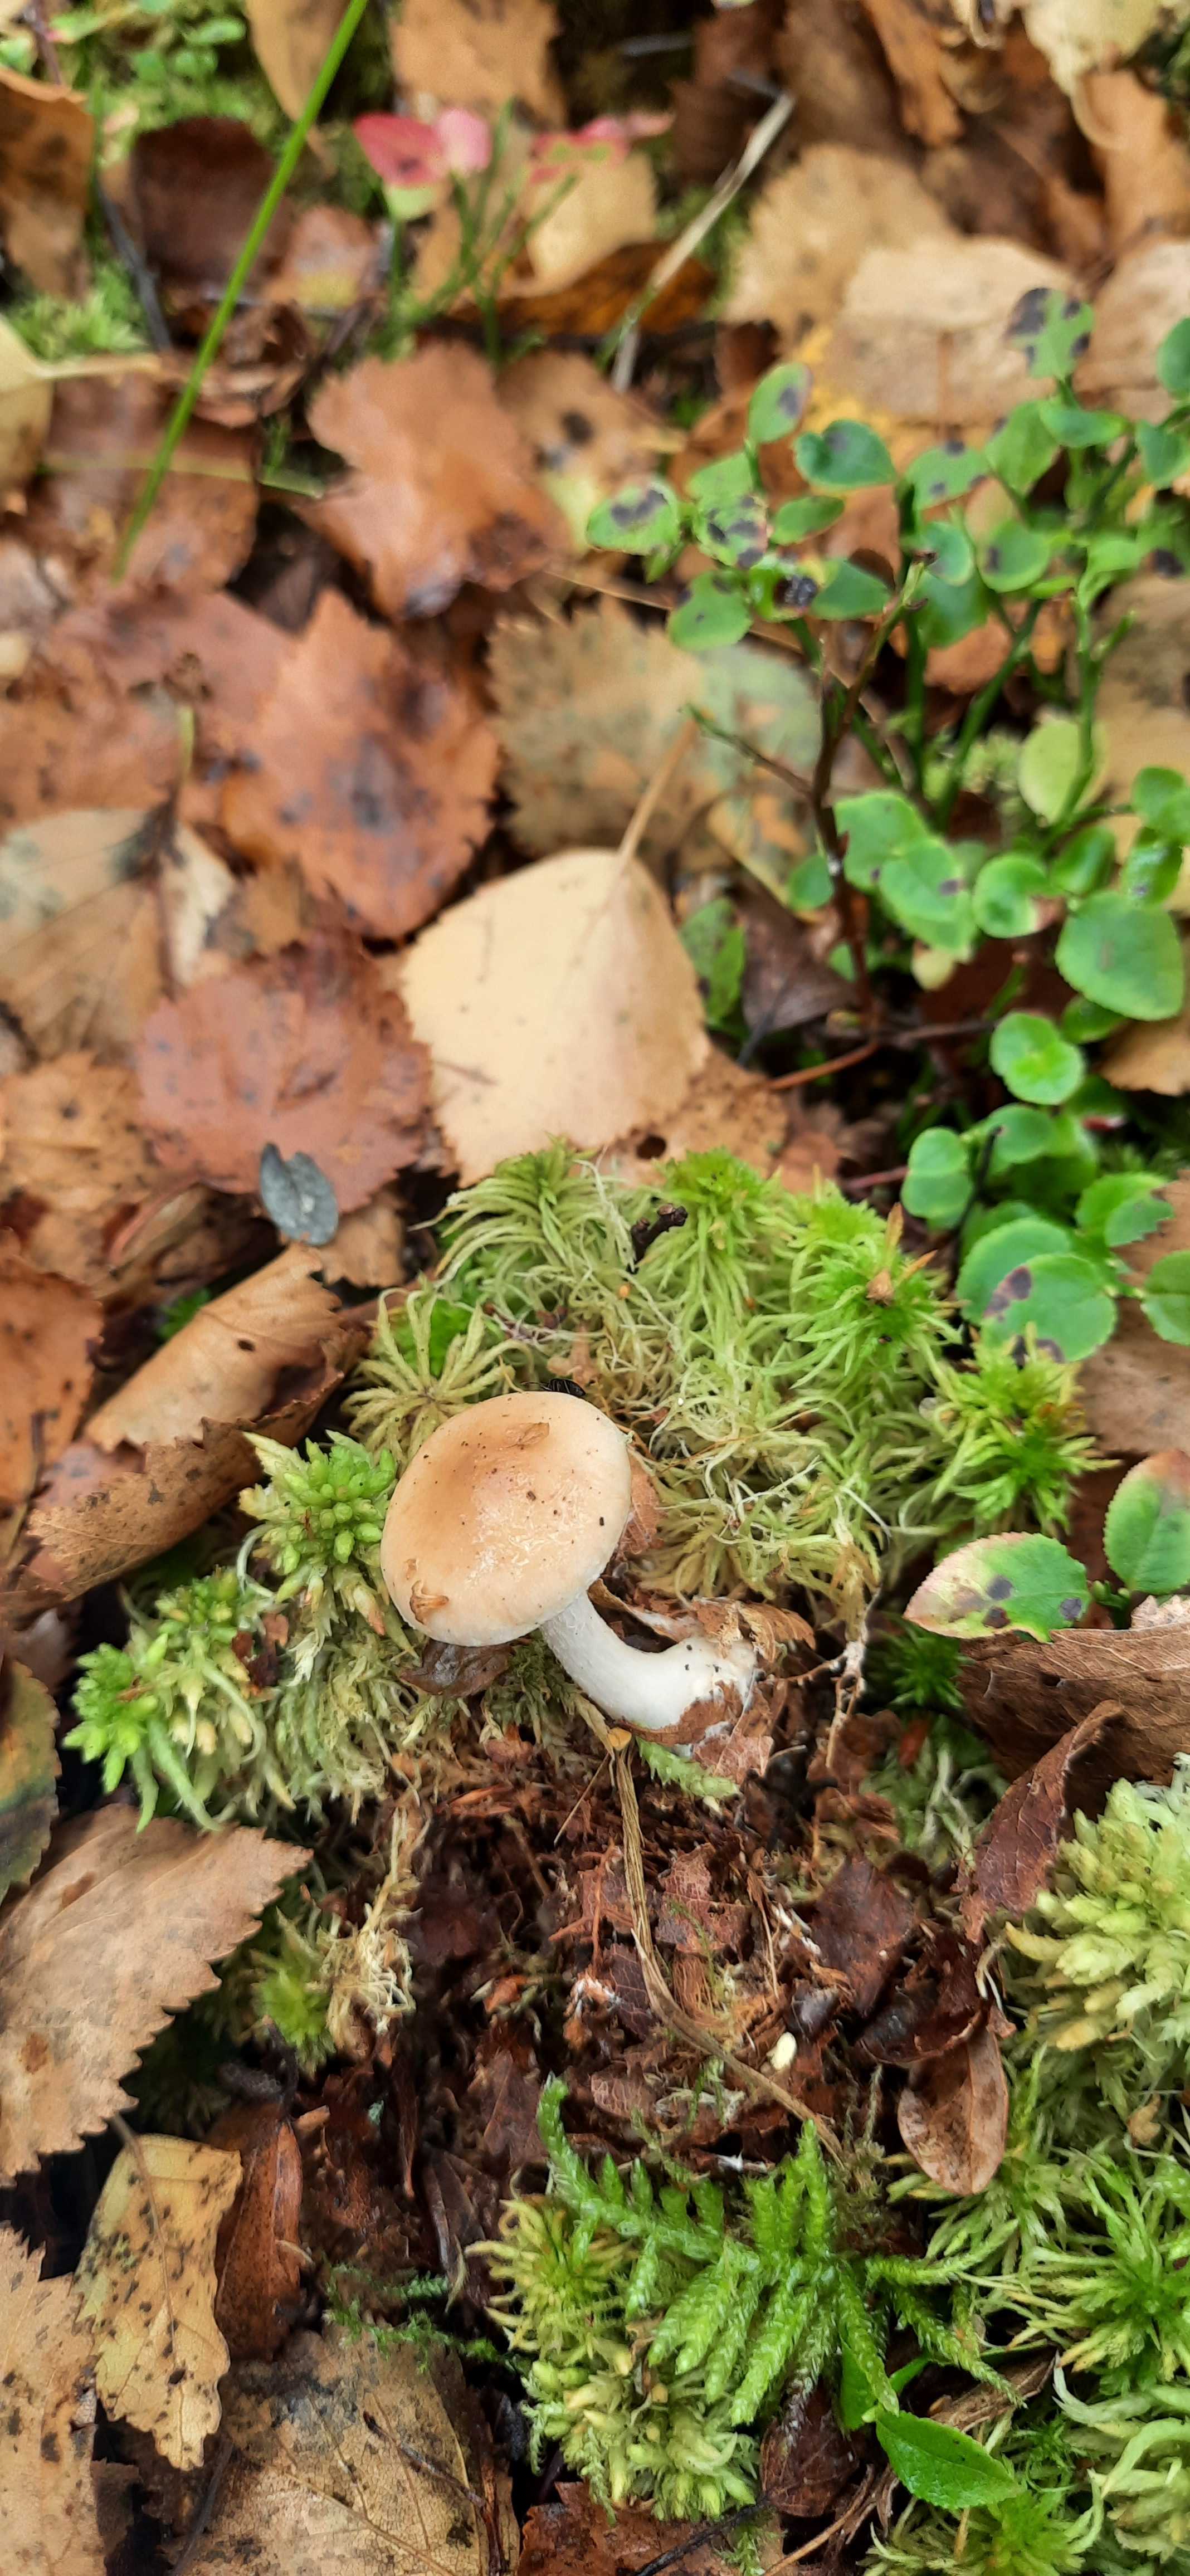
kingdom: Fungi
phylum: Basidiomycota
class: Agaricomycetes
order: Agaricales
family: Hymenogastraceae
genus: Hebeloma
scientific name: Hebeloma
